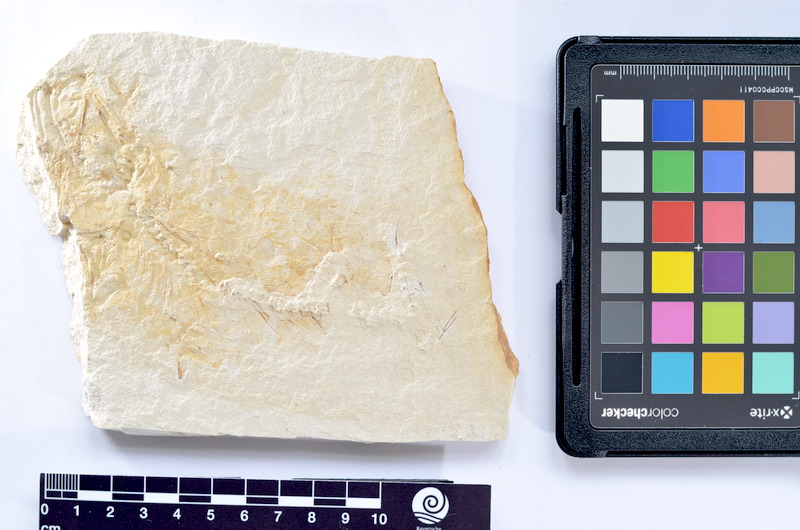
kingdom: Animalia
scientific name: Animalia
